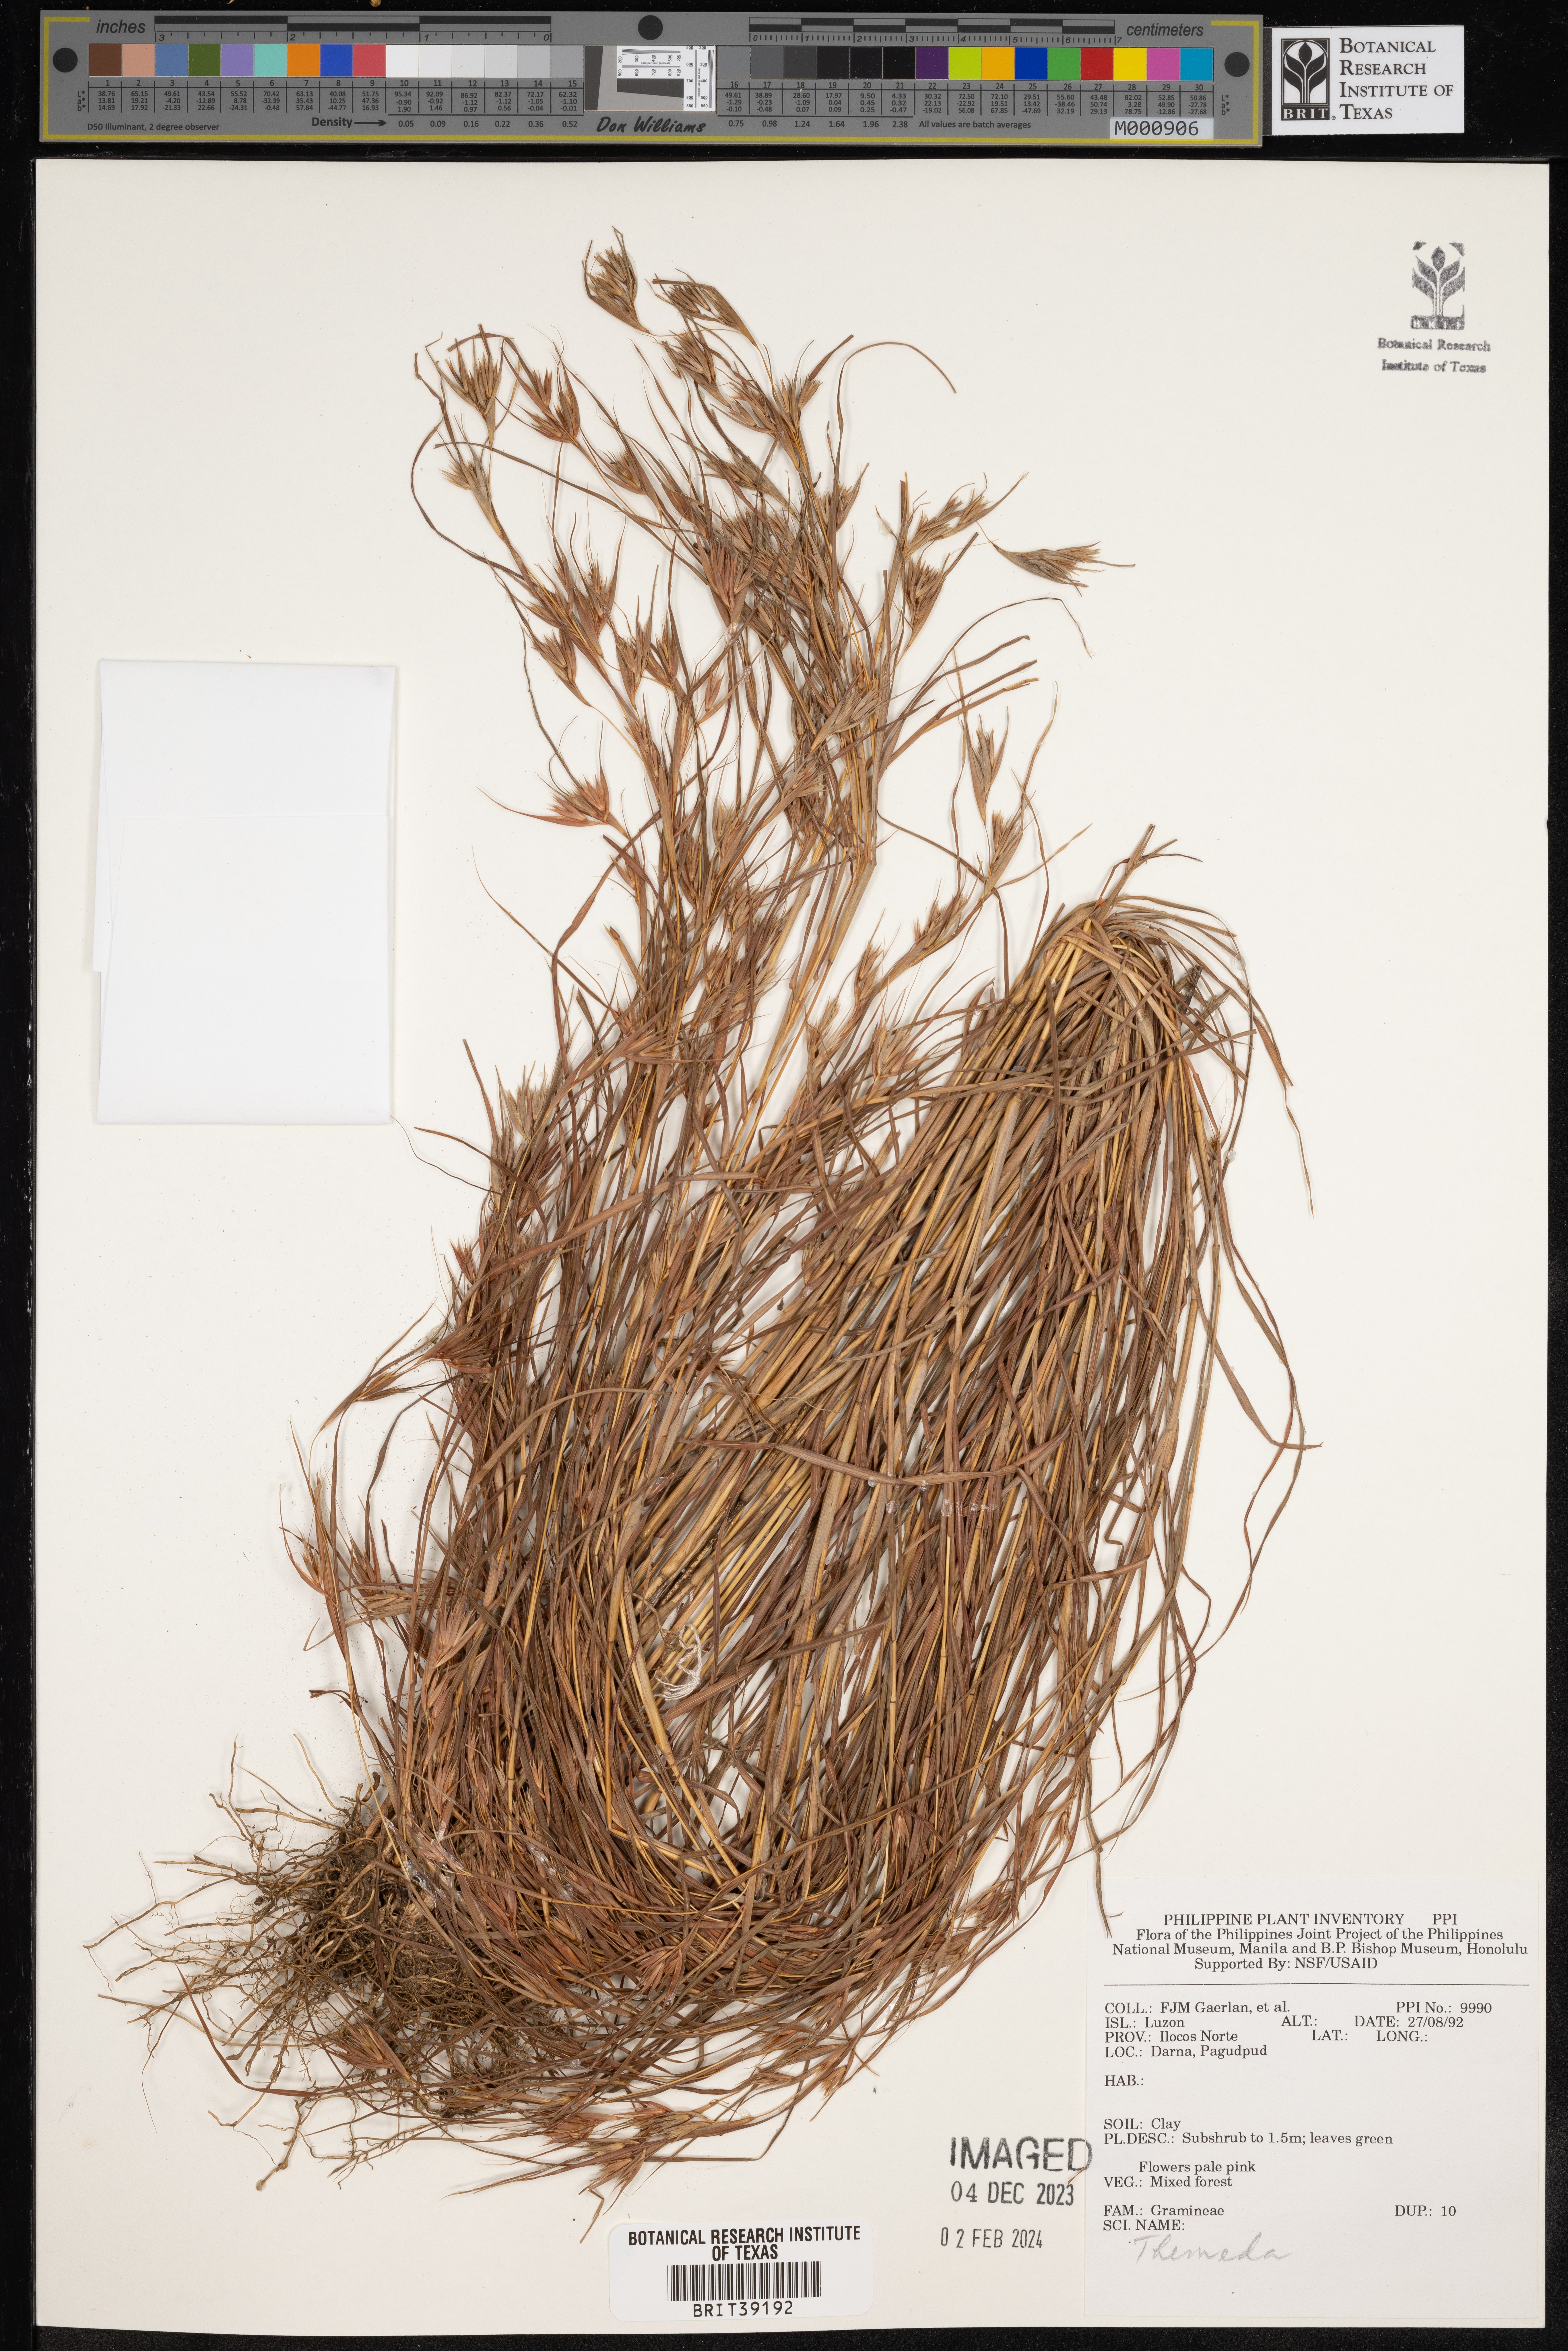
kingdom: Plantae
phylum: Tracheophyta
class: Liliopsida
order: Poales
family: Poaceae
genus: Themeda
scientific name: Themeda
